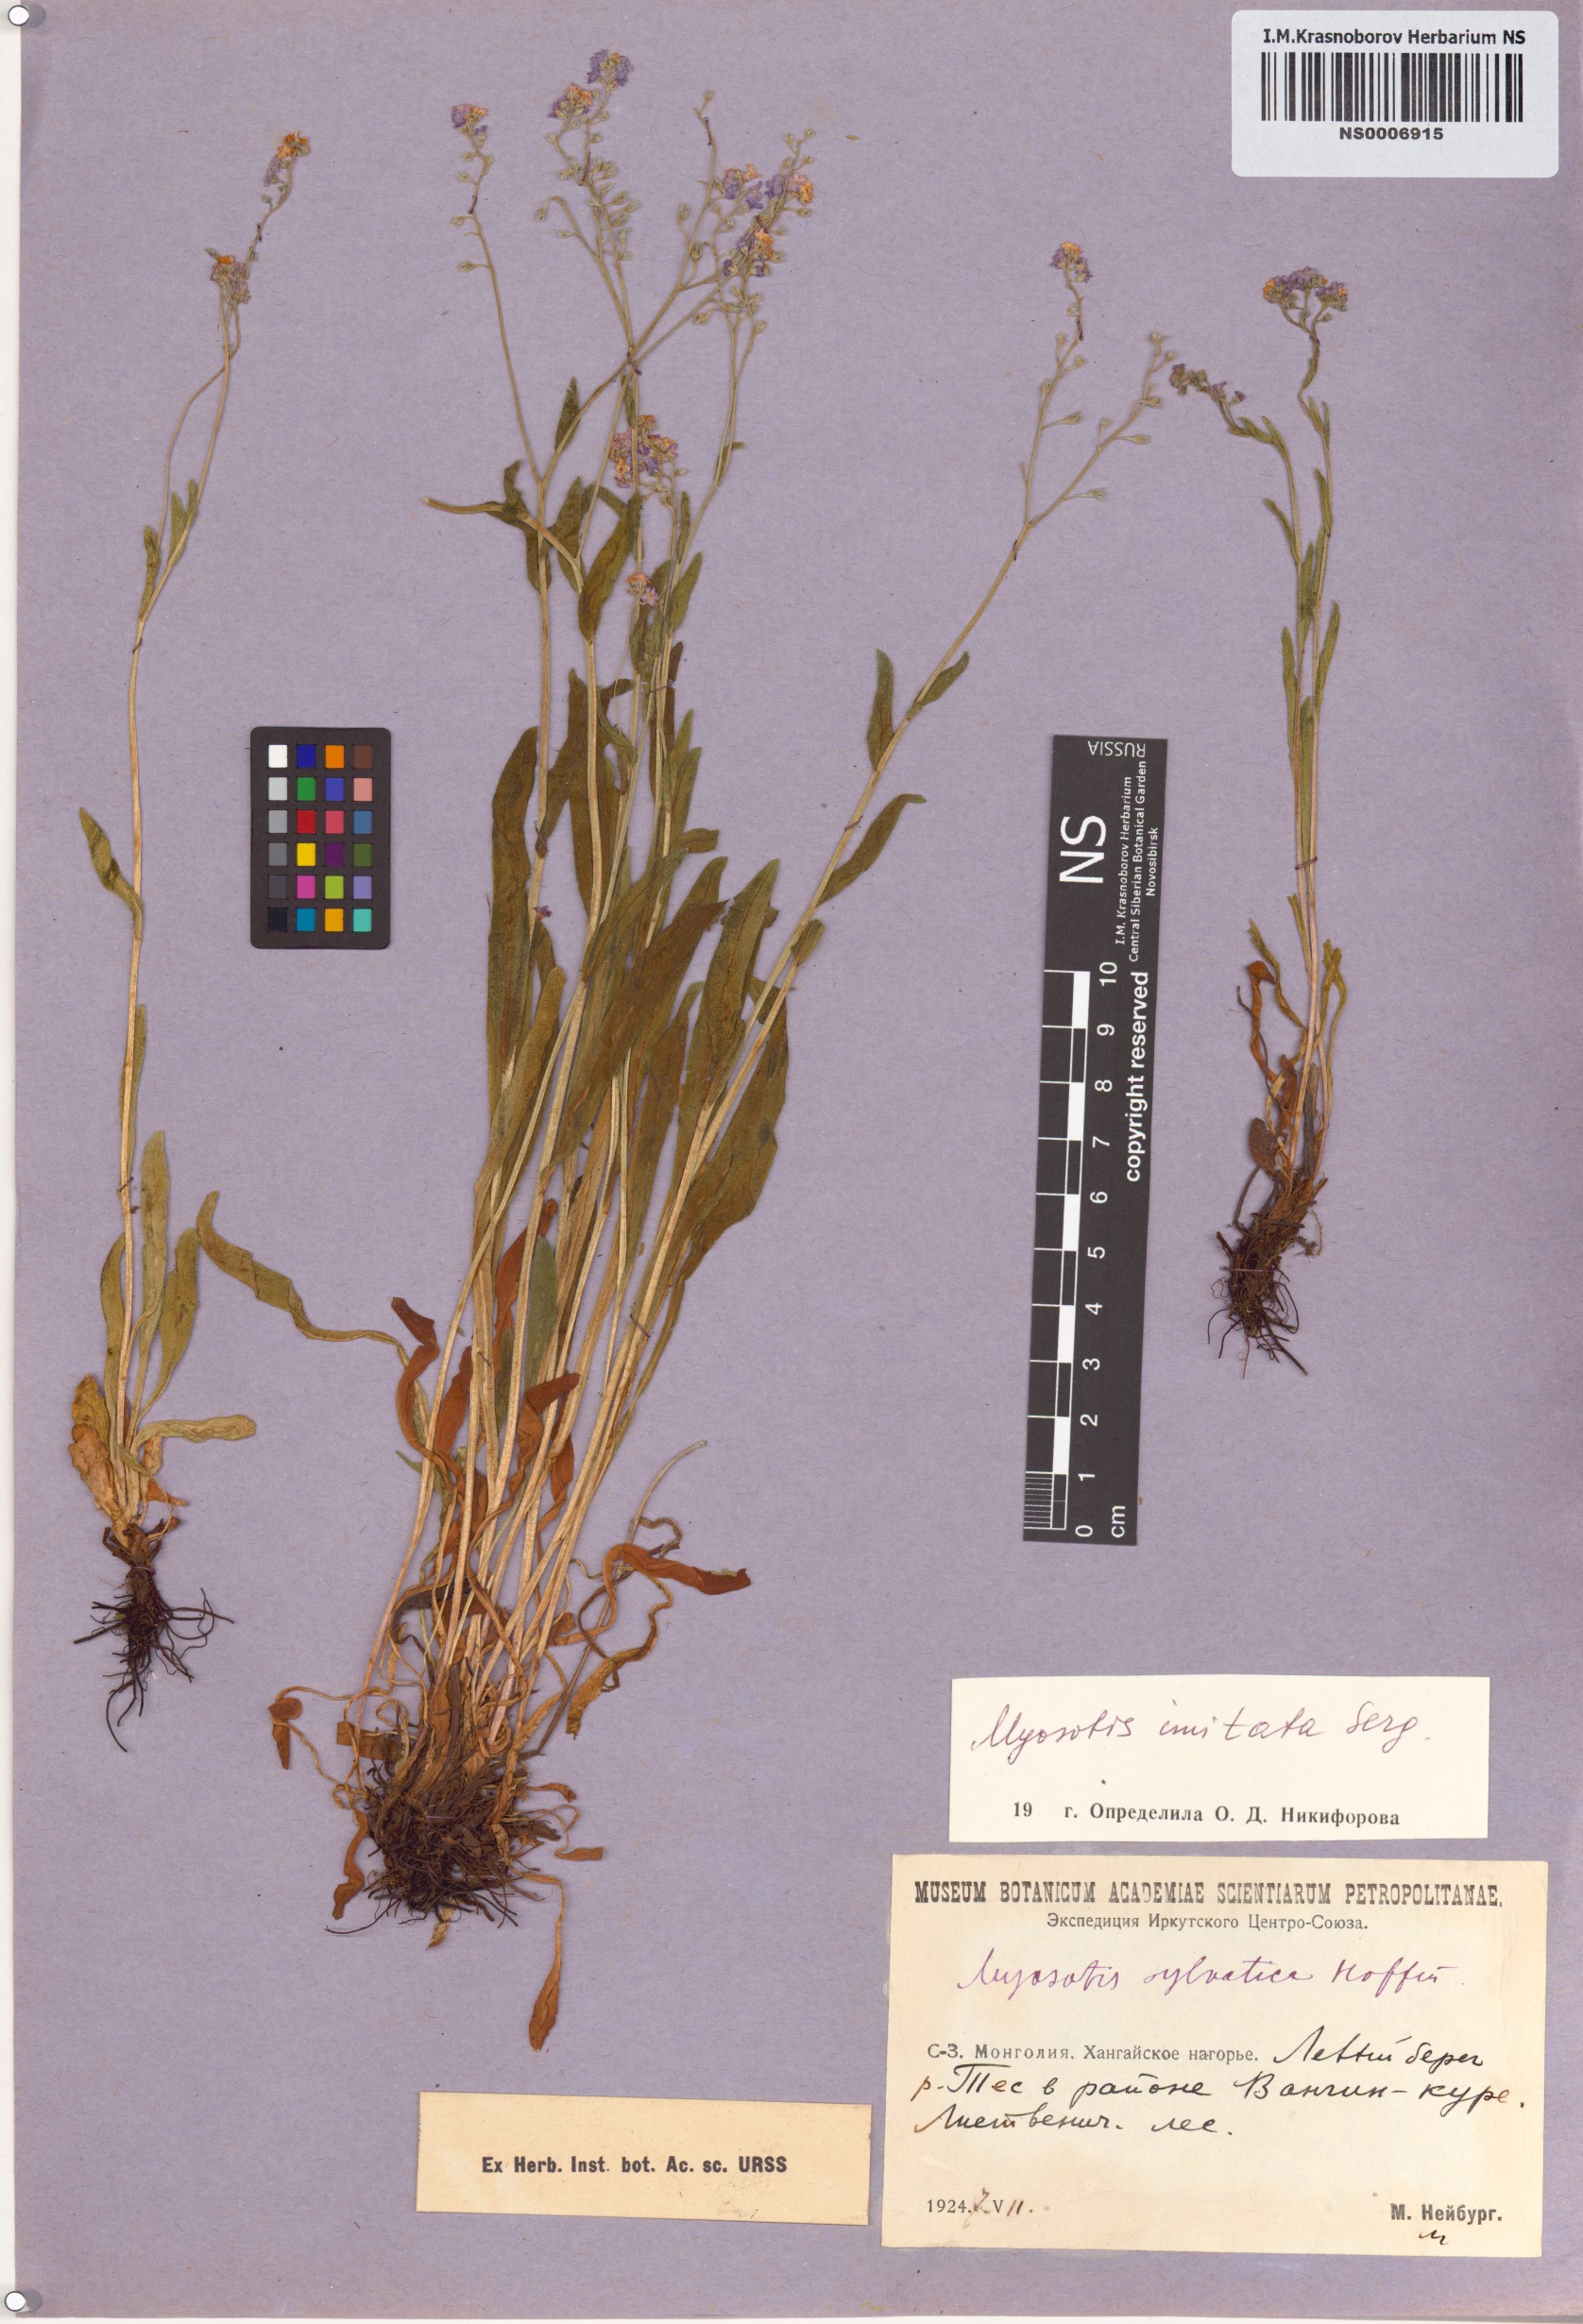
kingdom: Plantae
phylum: Tracheophyta
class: Magnoliopsida
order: Boraginales
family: Boraginaceae
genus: Myosotis
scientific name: Myosotis imitata
